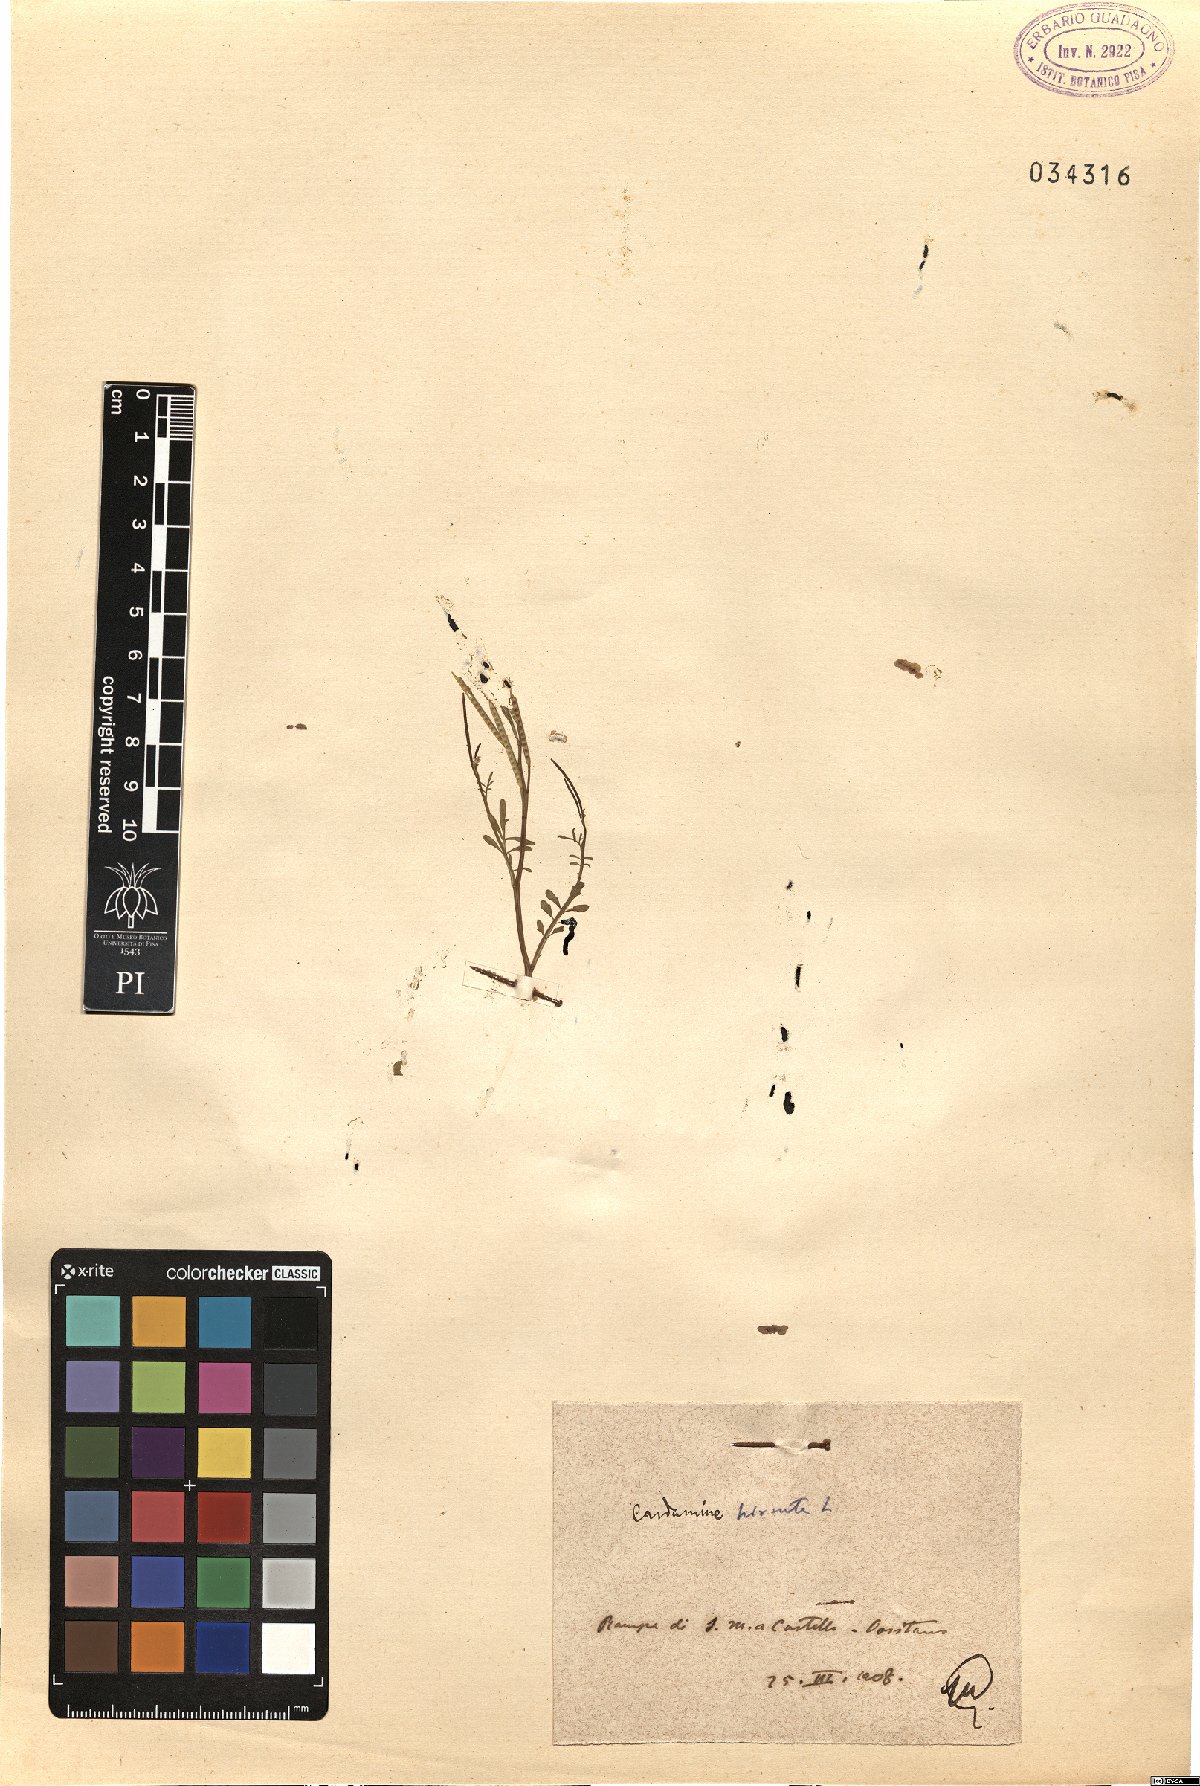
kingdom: Plantae
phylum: Tracheophyta
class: Magnoliopsida
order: Brassicales
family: Brassicaceae
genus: Cardamine
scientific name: Cardamine hirsuta
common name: Hairy bittercress
